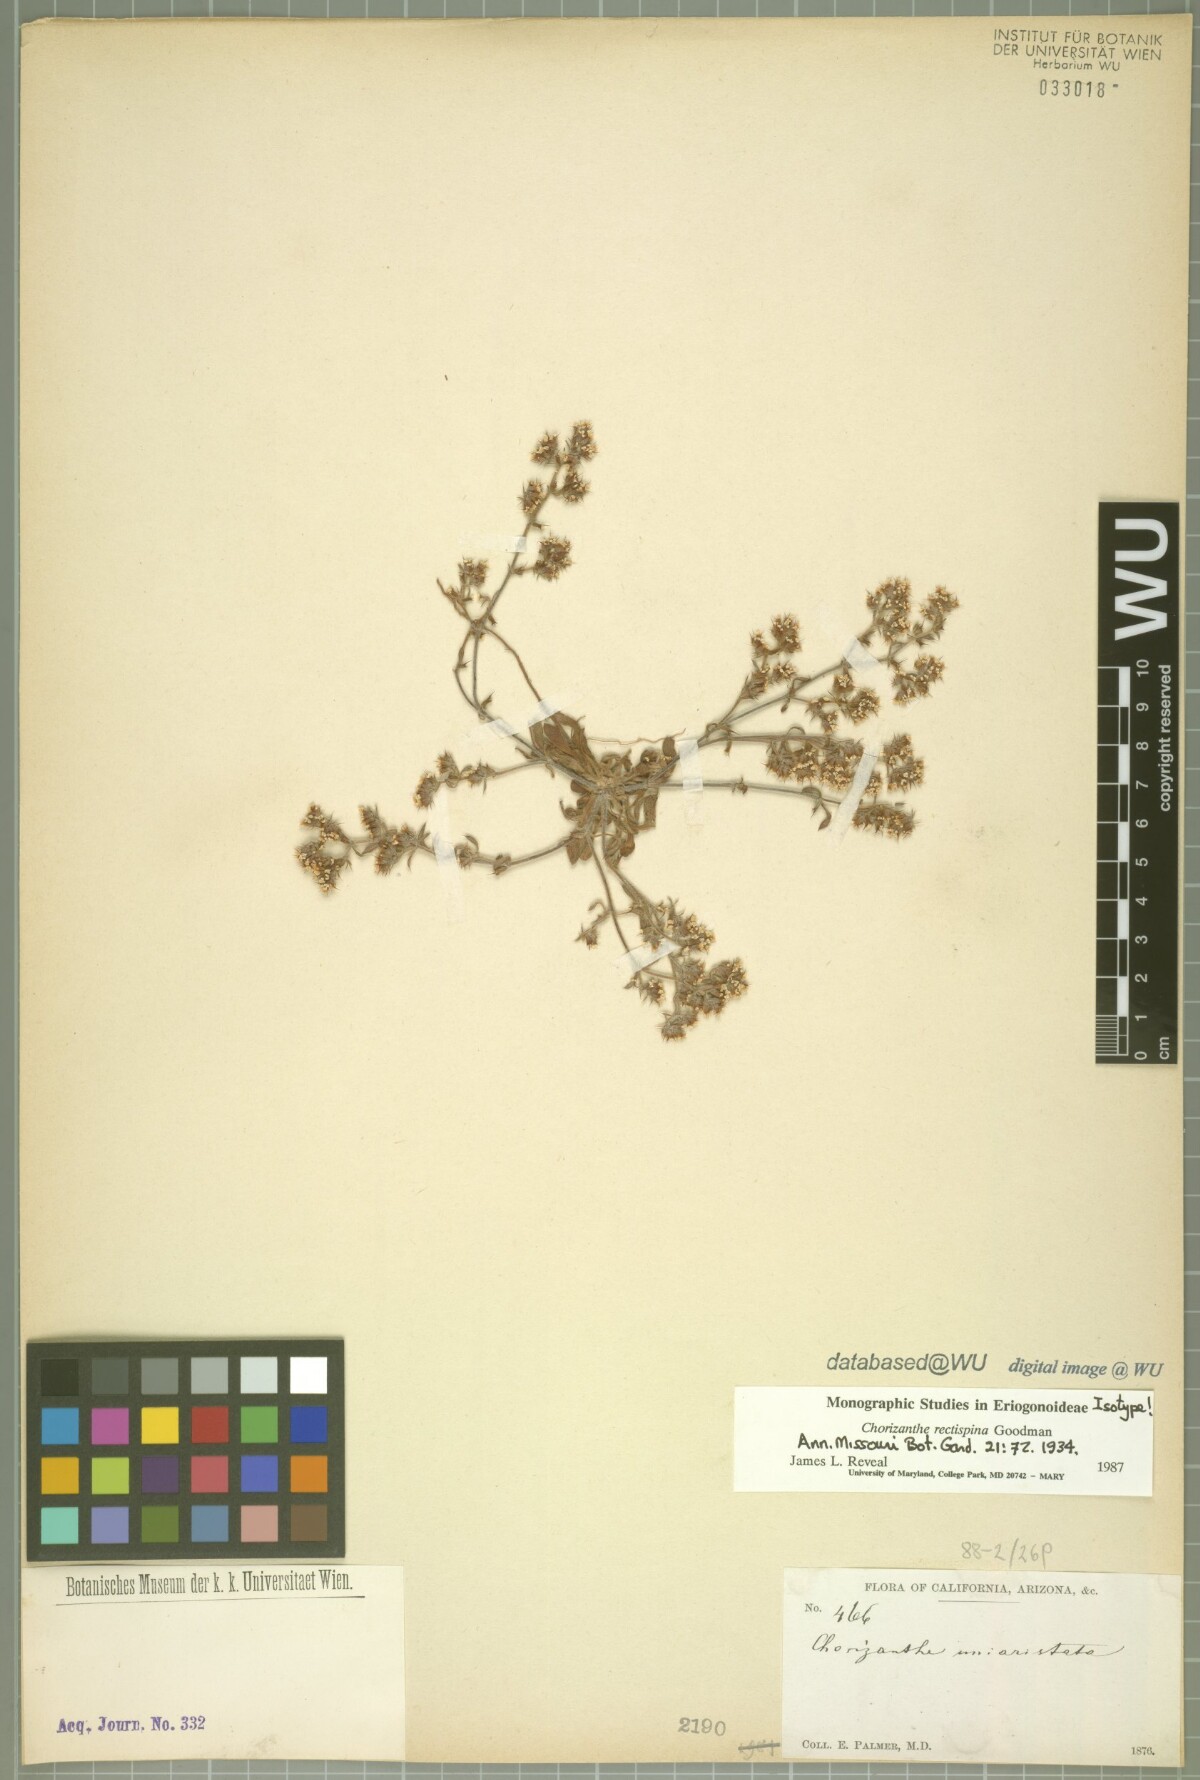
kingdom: Plantae
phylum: Tracheophyta
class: Magnoliopsida
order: Caryophyllales
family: Polygonaceae
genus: Chorizanthe
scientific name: Chorizanthe rectispina
